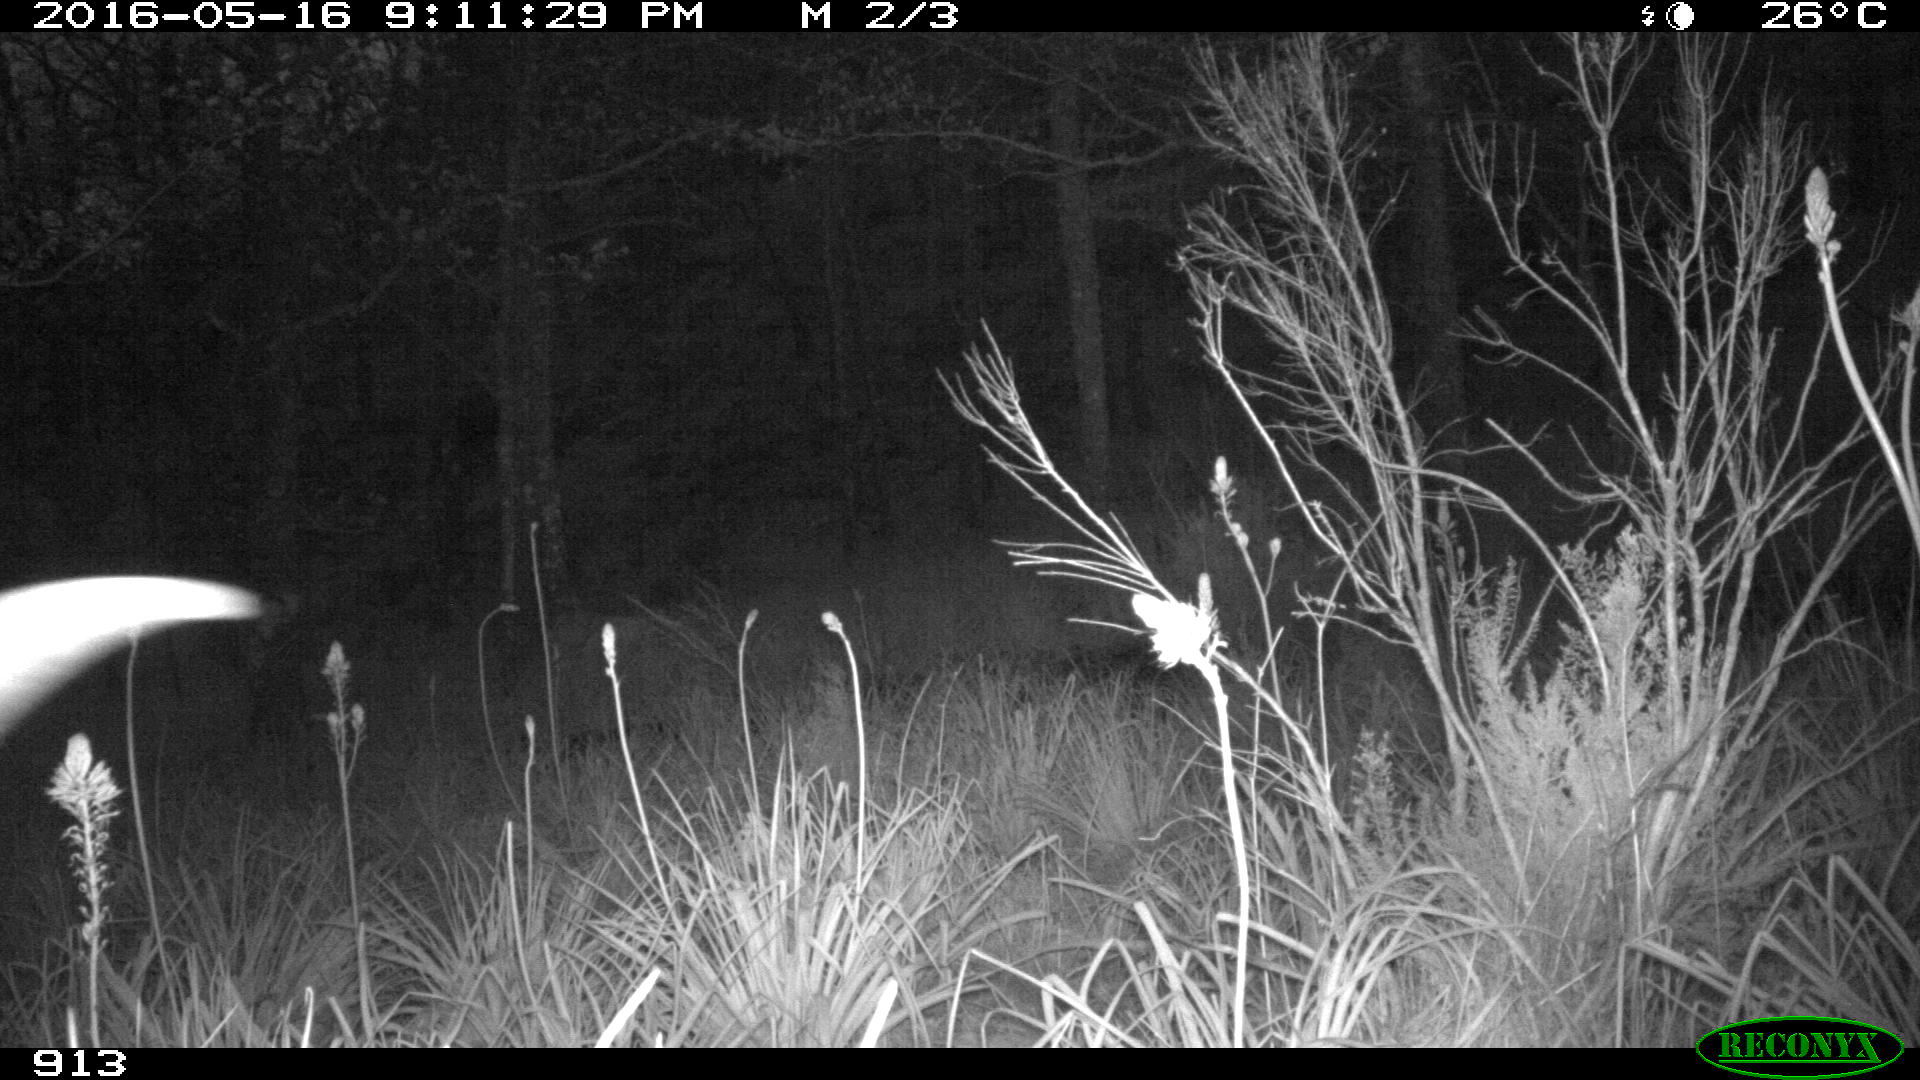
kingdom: Animalia
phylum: Chordata
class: Mammalia
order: Artiodactyla
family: Bovidae
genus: Bos
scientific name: Bos taurus
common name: Domesticated cattle
